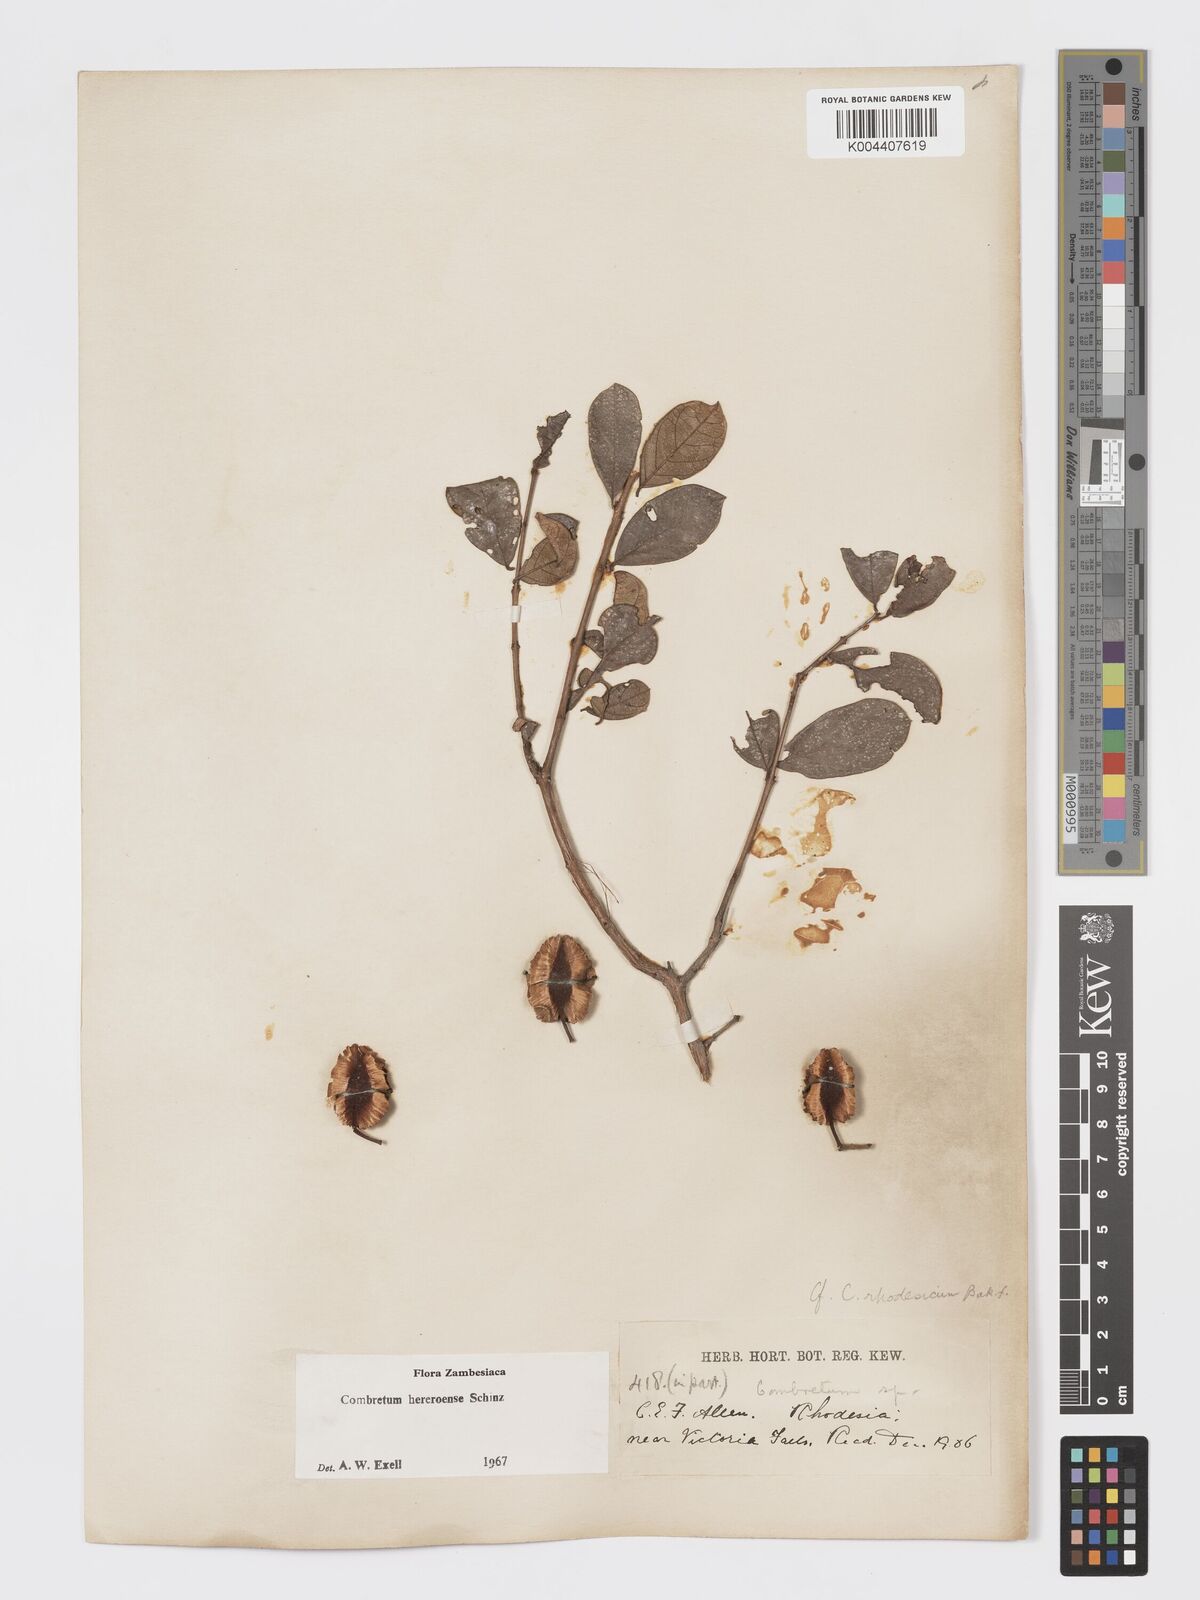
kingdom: Plantae
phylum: Tracheophyta
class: Magnoliopsida
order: Myrtales
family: Combretaceae
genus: Combretum
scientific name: Combretum hereroense
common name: Russet bushwillow
